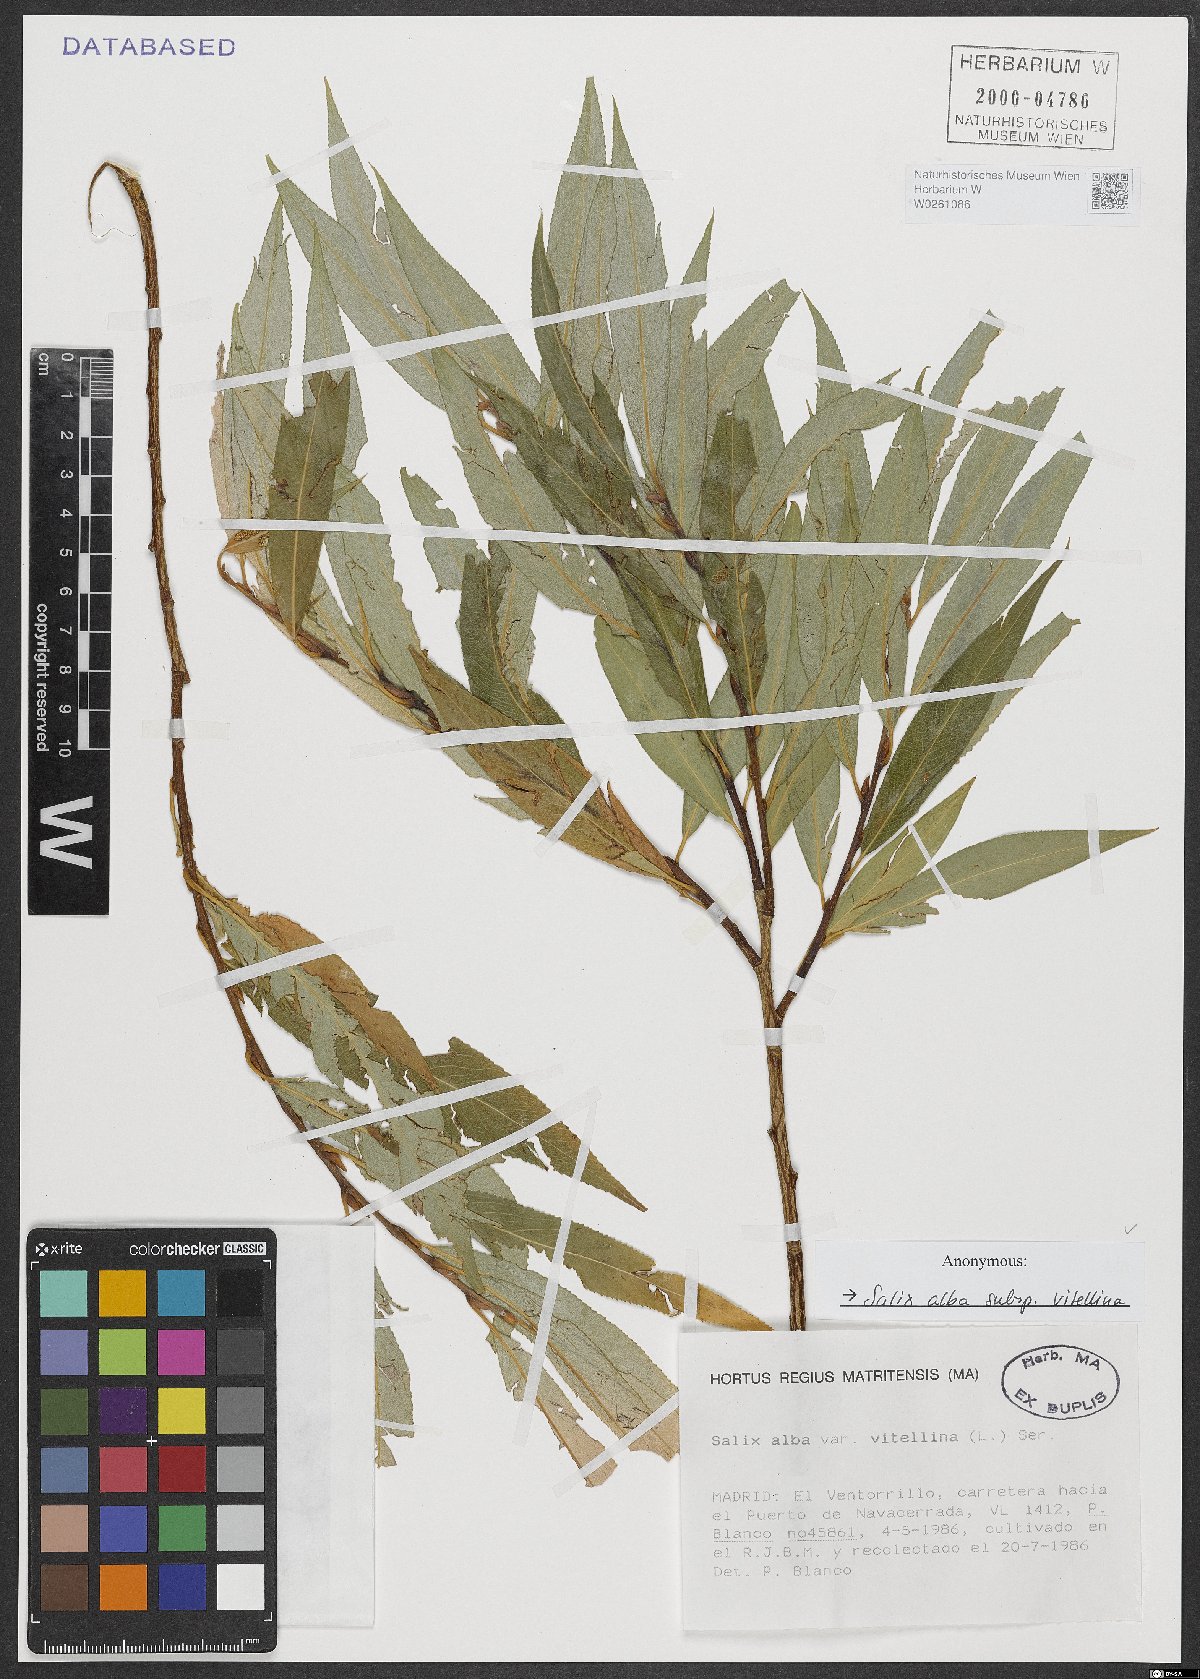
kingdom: Plantae
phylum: Tracheophyta
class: Magnoliopsida
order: Malpighiales
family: Salicaceae
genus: Salix
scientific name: Salix alba
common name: White willow
